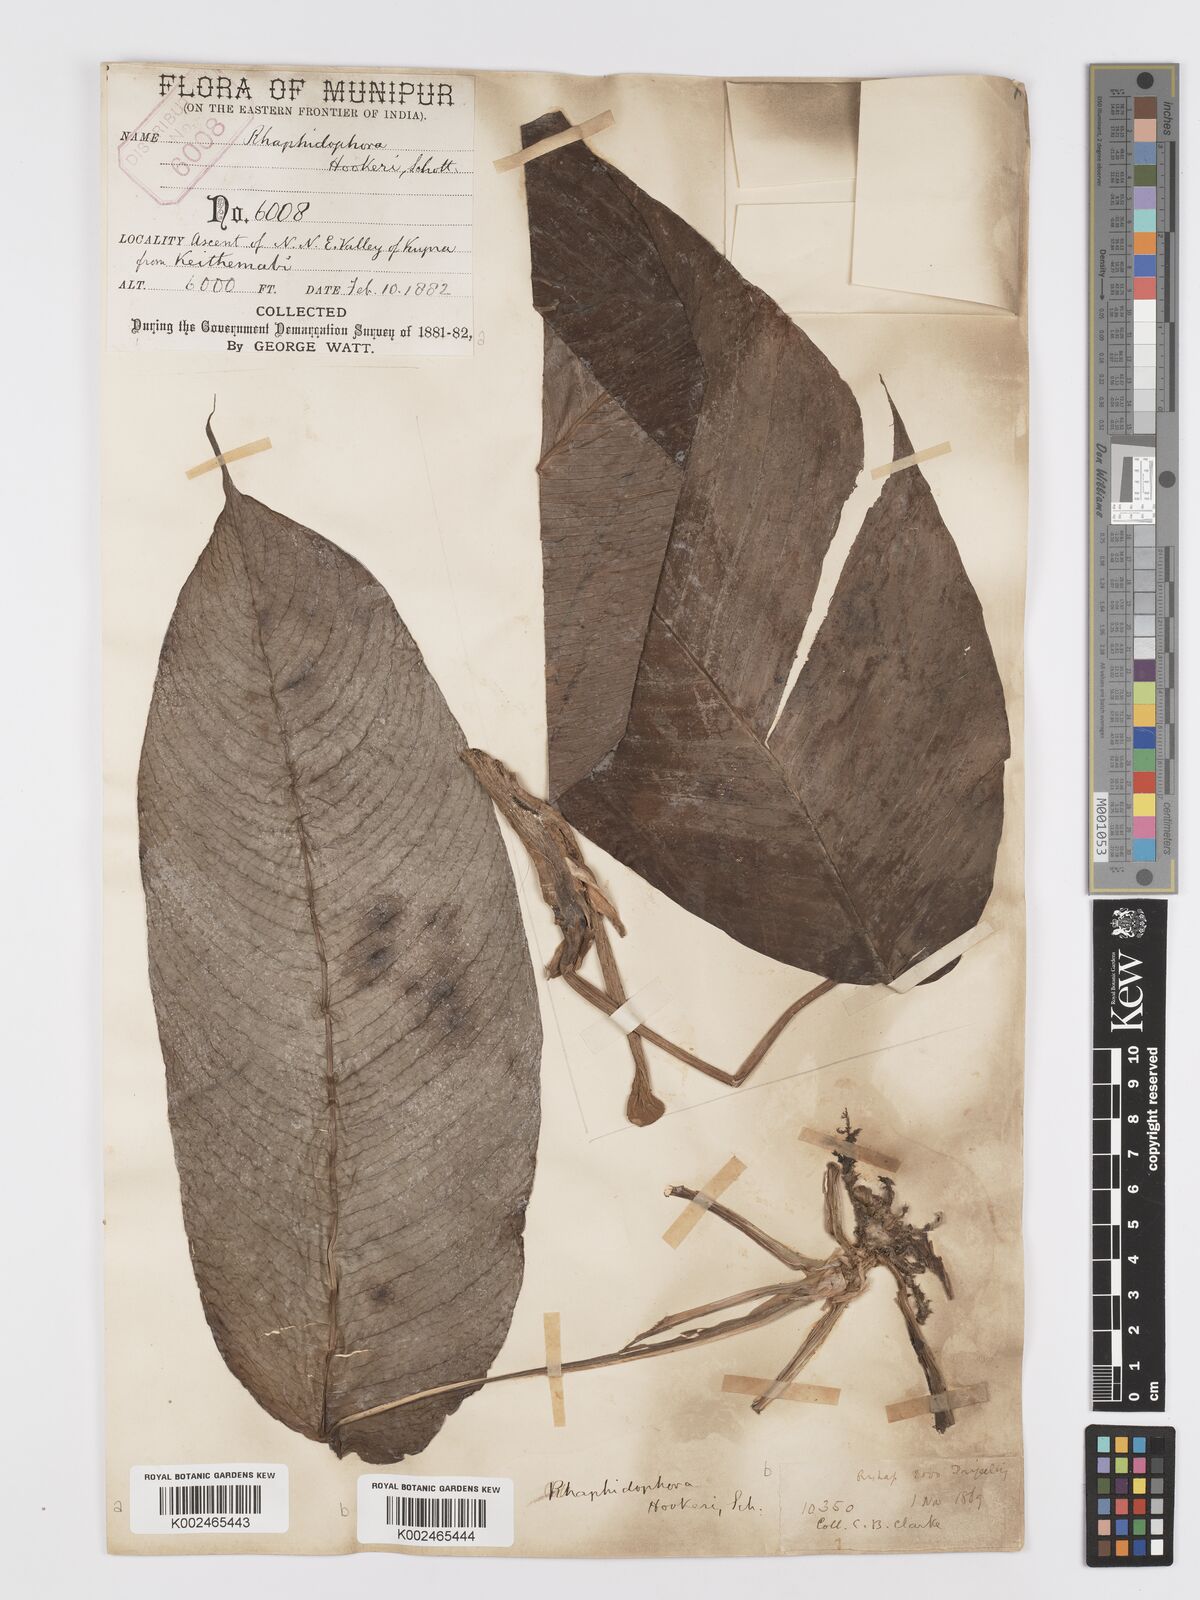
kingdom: Plantae
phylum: Tracheophyta
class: Liliopsida
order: Alismatales
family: Araceae
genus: Rhaphidophora
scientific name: Rhaphidophora hookeri
